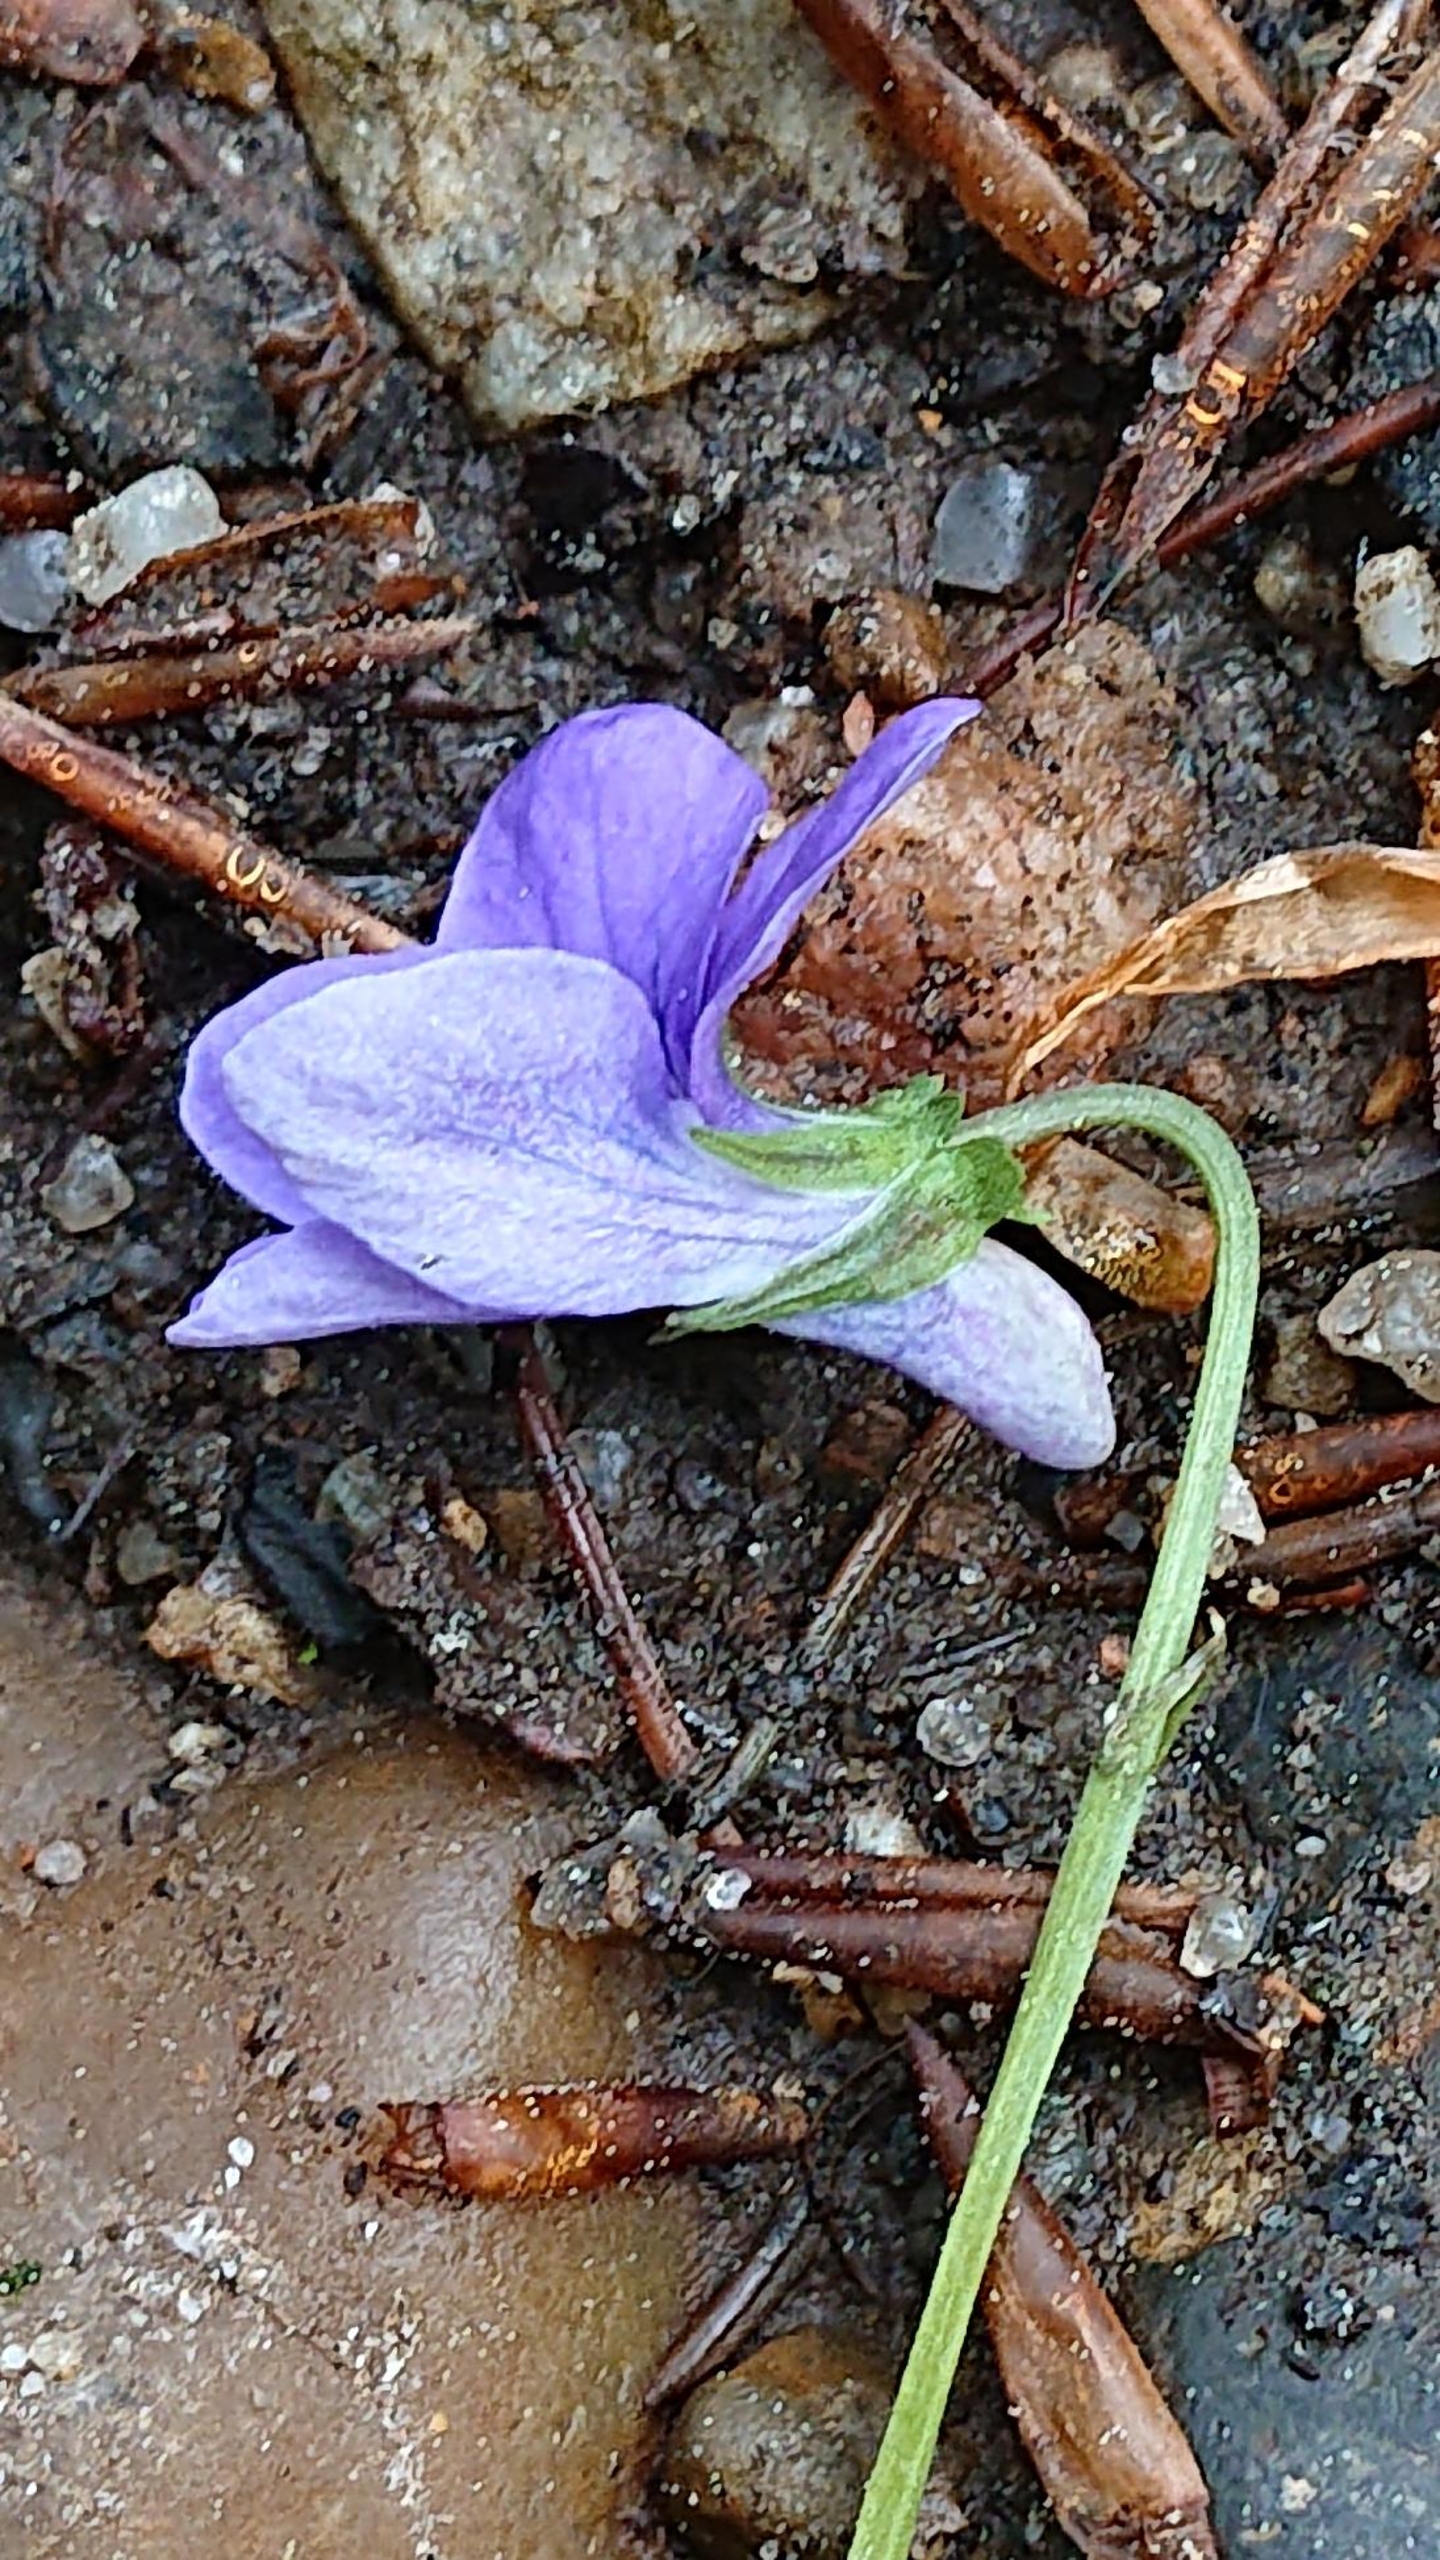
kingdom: Plantae
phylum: Tracheophyta
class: Magnoliopsida
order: Malpighiales
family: Violaceae
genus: Viola
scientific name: Viola reichenbachiana
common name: Skov-viol
